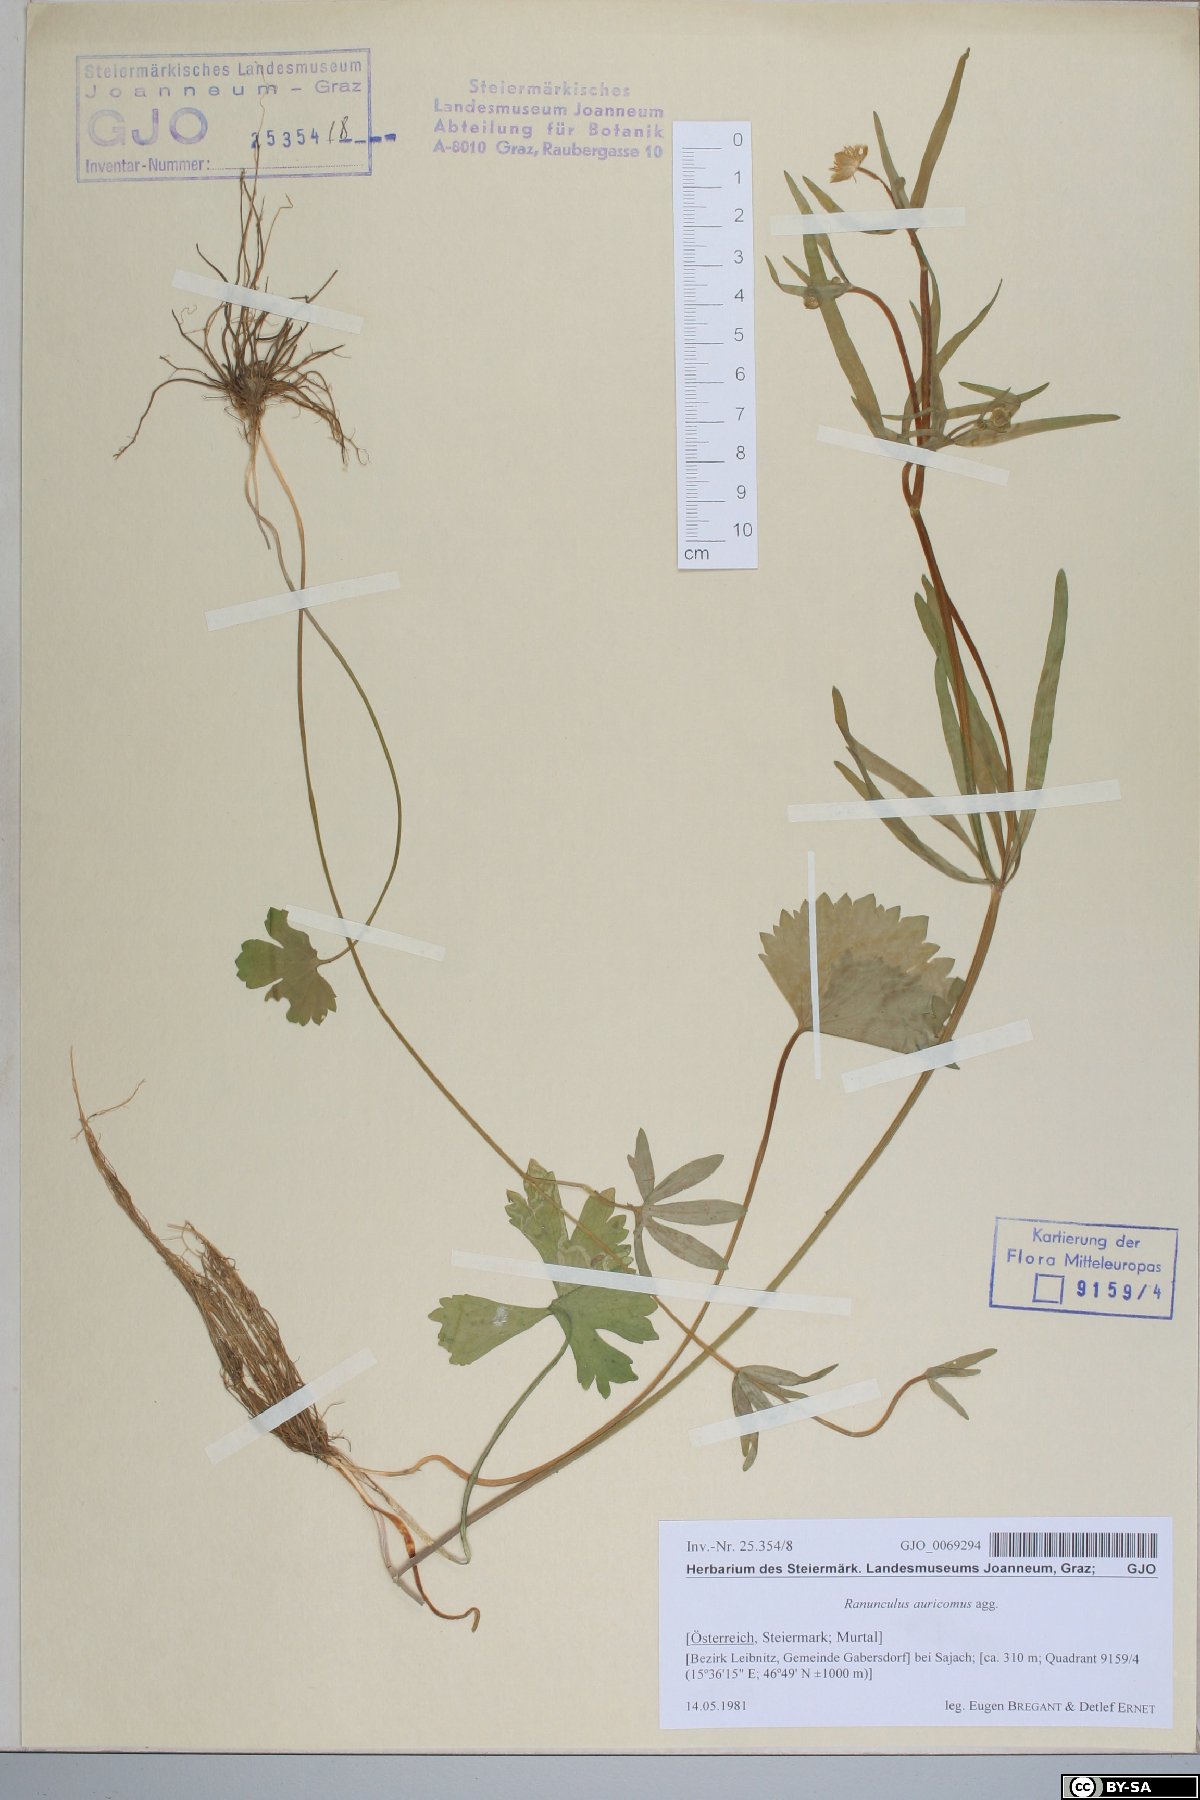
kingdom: Plantae
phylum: Tracheophyta
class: Magnoliopsida
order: Ranunculales
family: Ranunculaceae
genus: Ranunculus
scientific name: Ranunculus auricomus
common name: Goldilocks buttercup
